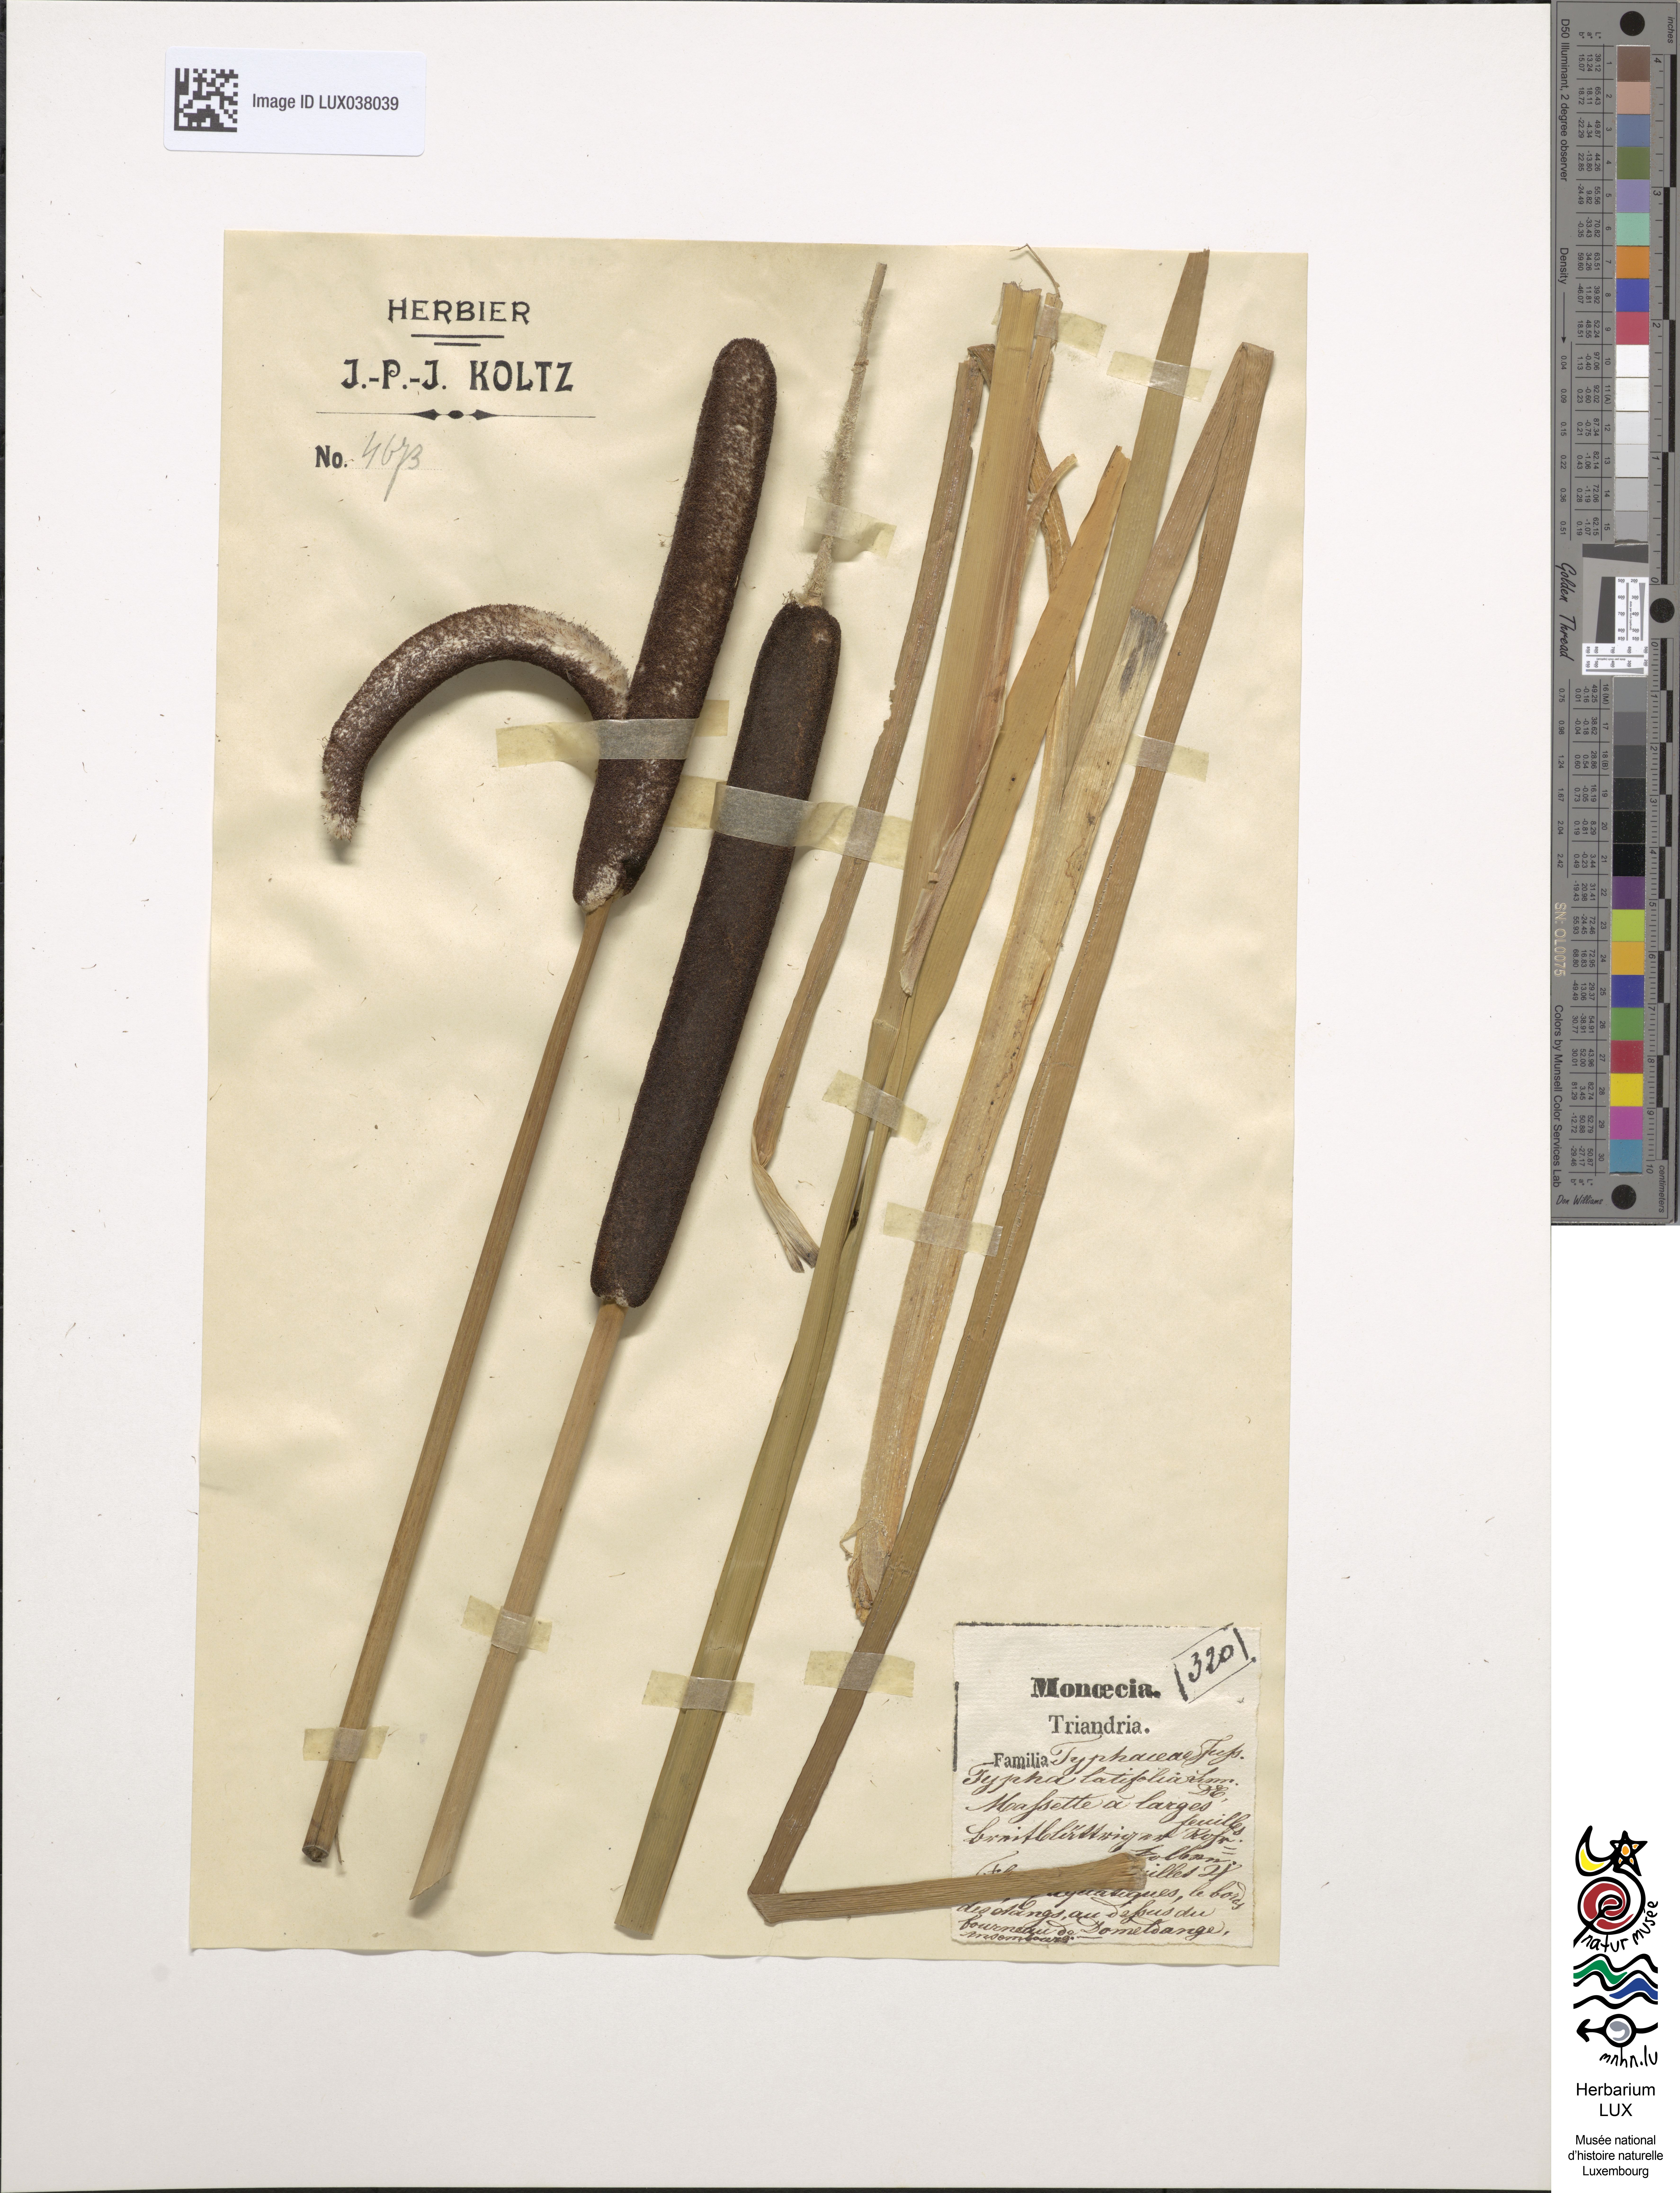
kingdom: Plantae
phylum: Tracheophyta
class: Liliopsida
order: Poales
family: Typhaceae
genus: Typha
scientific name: Typha latifolia
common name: Broadleaf cattail
